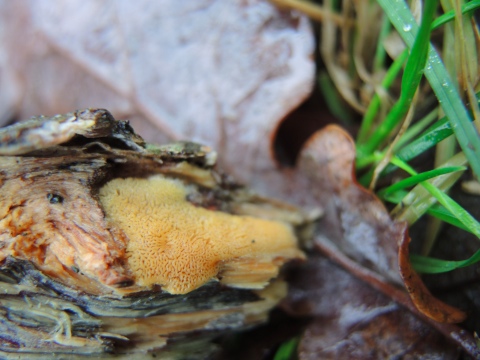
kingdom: Fungi
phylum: Basidiomycota
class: Agaricomycetes
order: Polyporales
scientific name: Polyporales
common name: poresvampordenen
